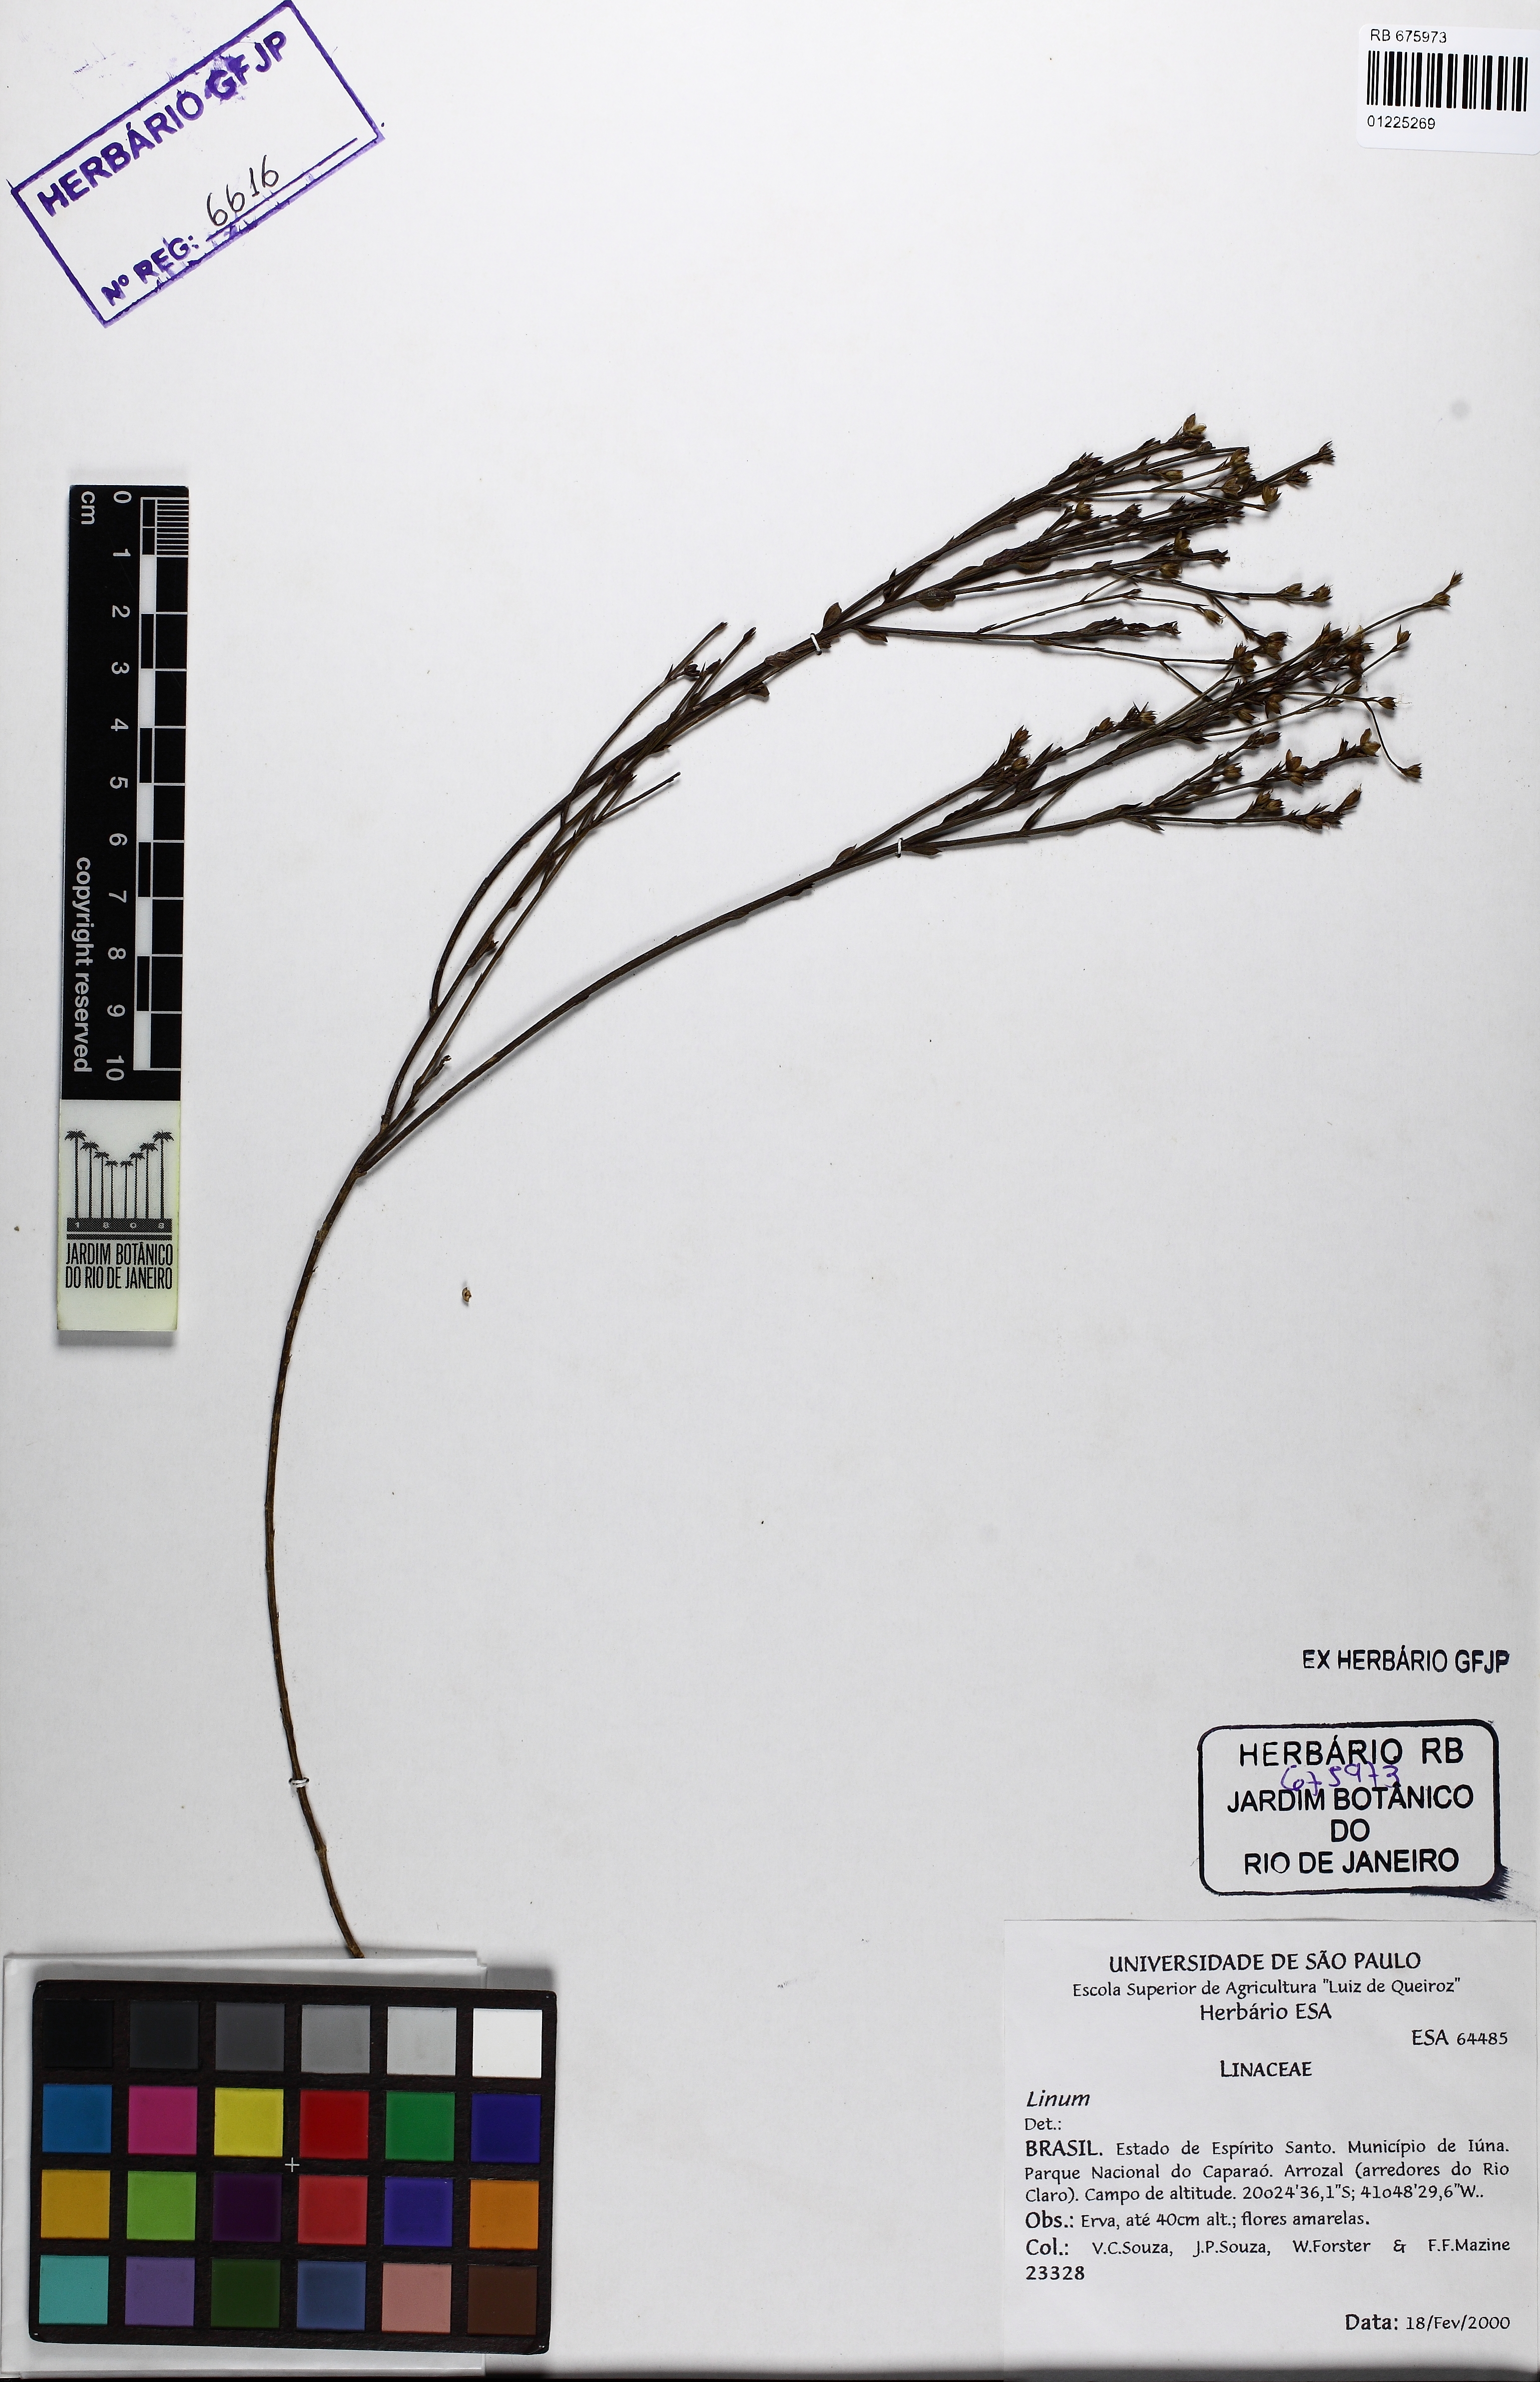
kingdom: Plantae
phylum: Tracheophyta
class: Magnoliopsida
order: Malpighiales
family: Linaceae
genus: Linum
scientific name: Linum littorale
